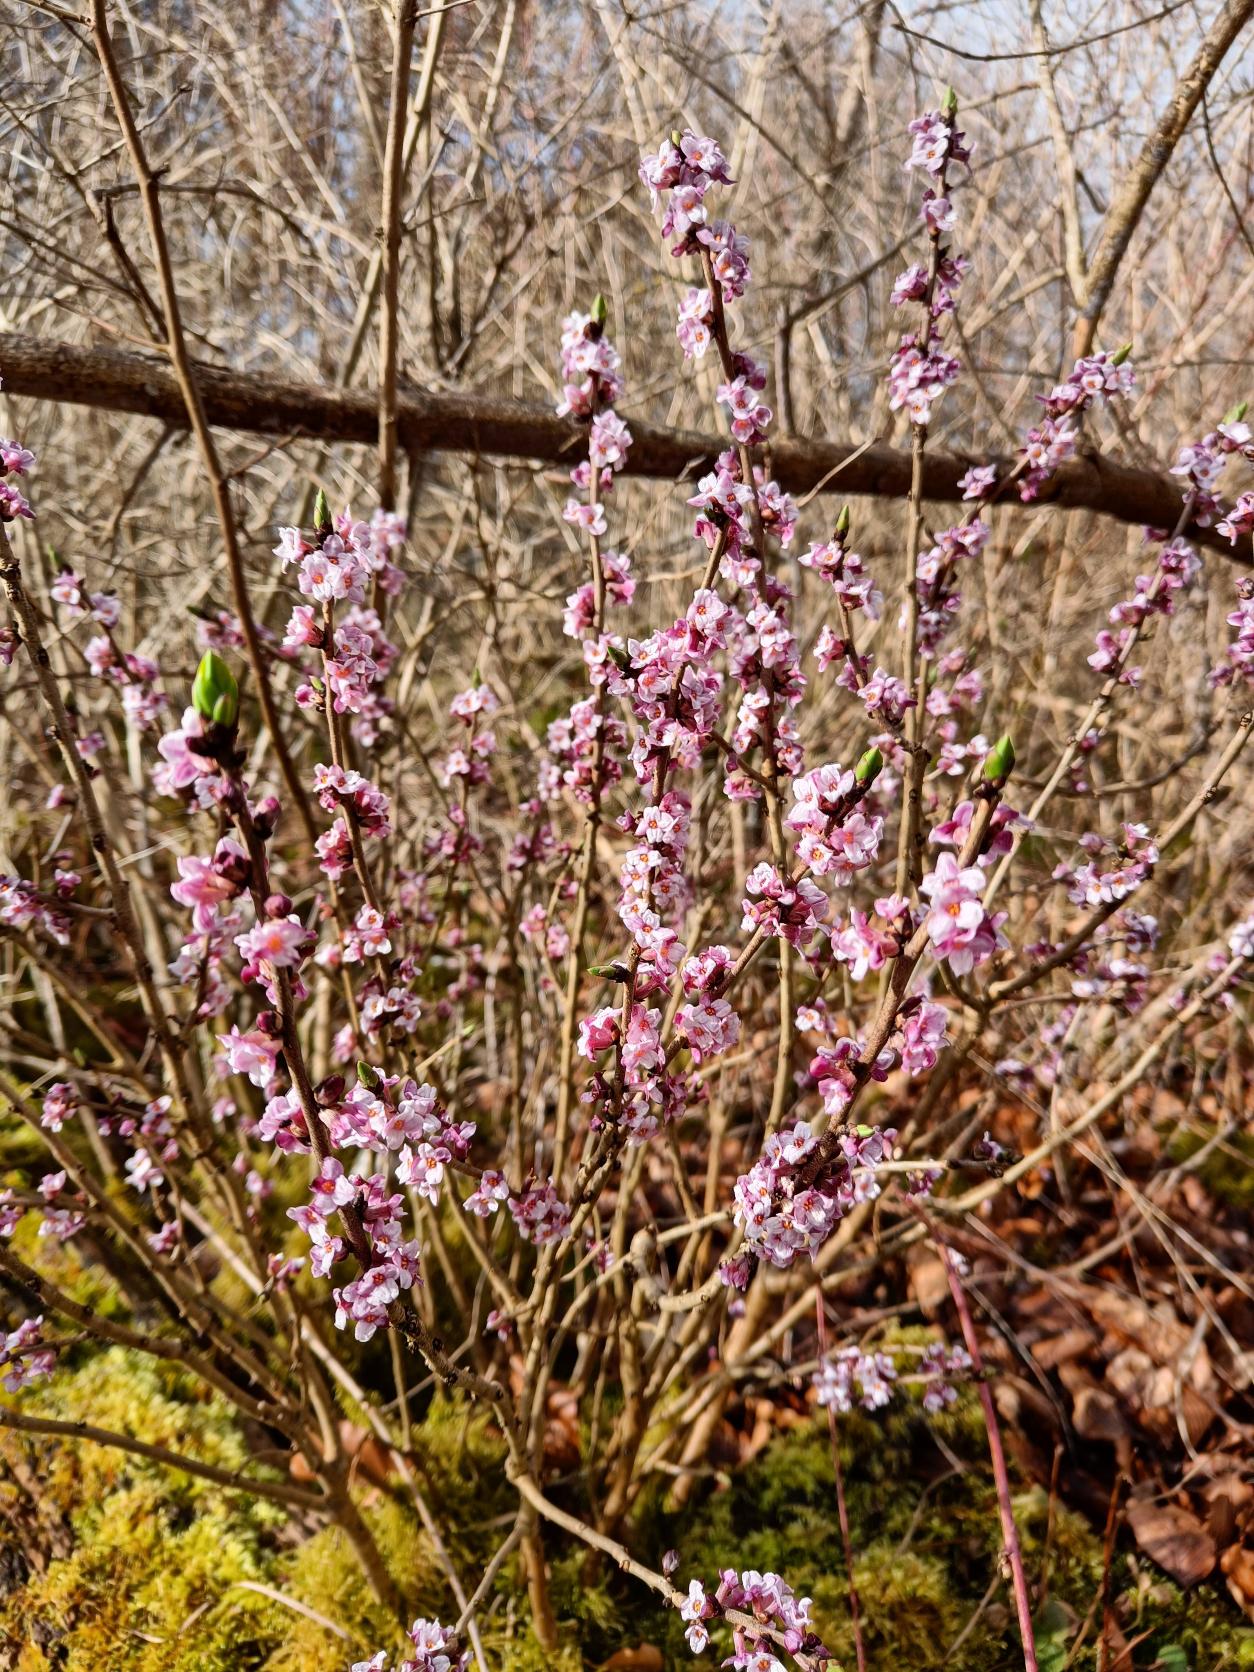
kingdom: Plantae
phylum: Tracheophyta
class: Magnoliopsida
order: Malvales
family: Thymelaeaceae
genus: Daphne
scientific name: Daphne mezereum
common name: Pebertræ
